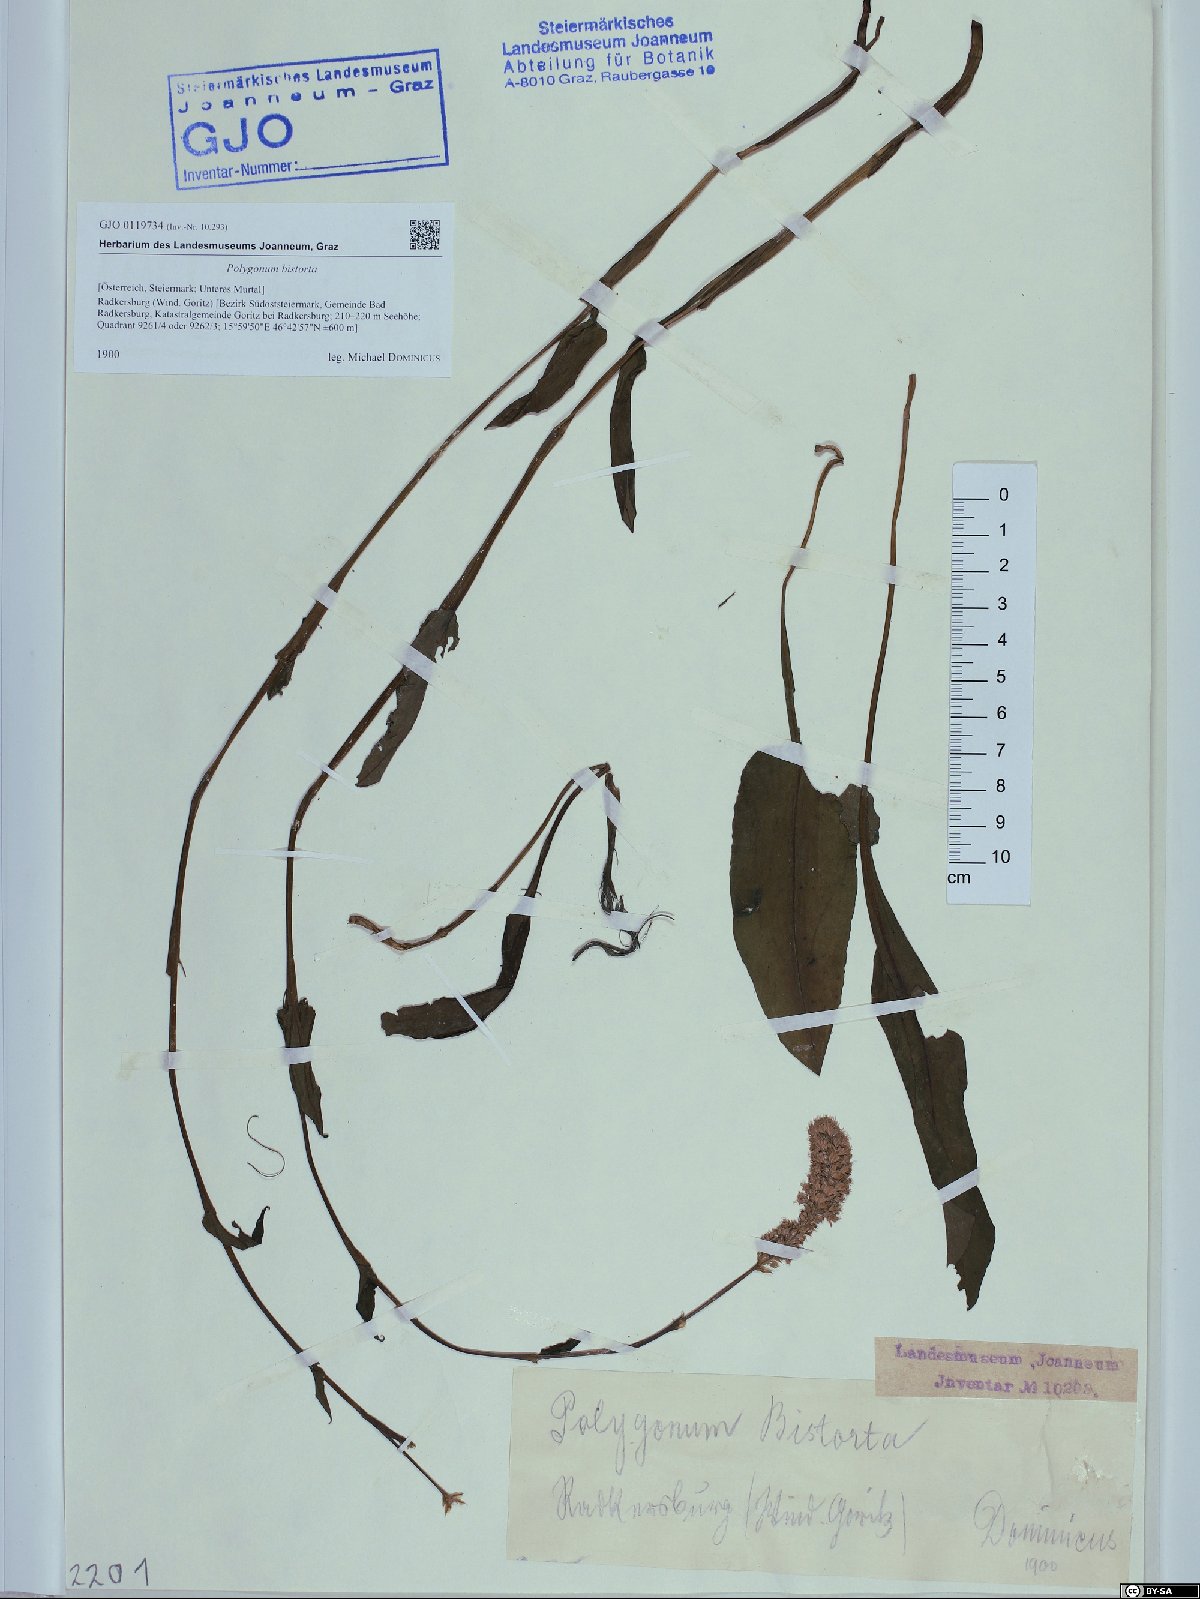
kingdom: Plantae
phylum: Tracheophyta
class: Magnoliopsida
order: Caryophyllales
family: Polygonaceae
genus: Bistorta
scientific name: Bistorta officinalis
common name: Common bistort
